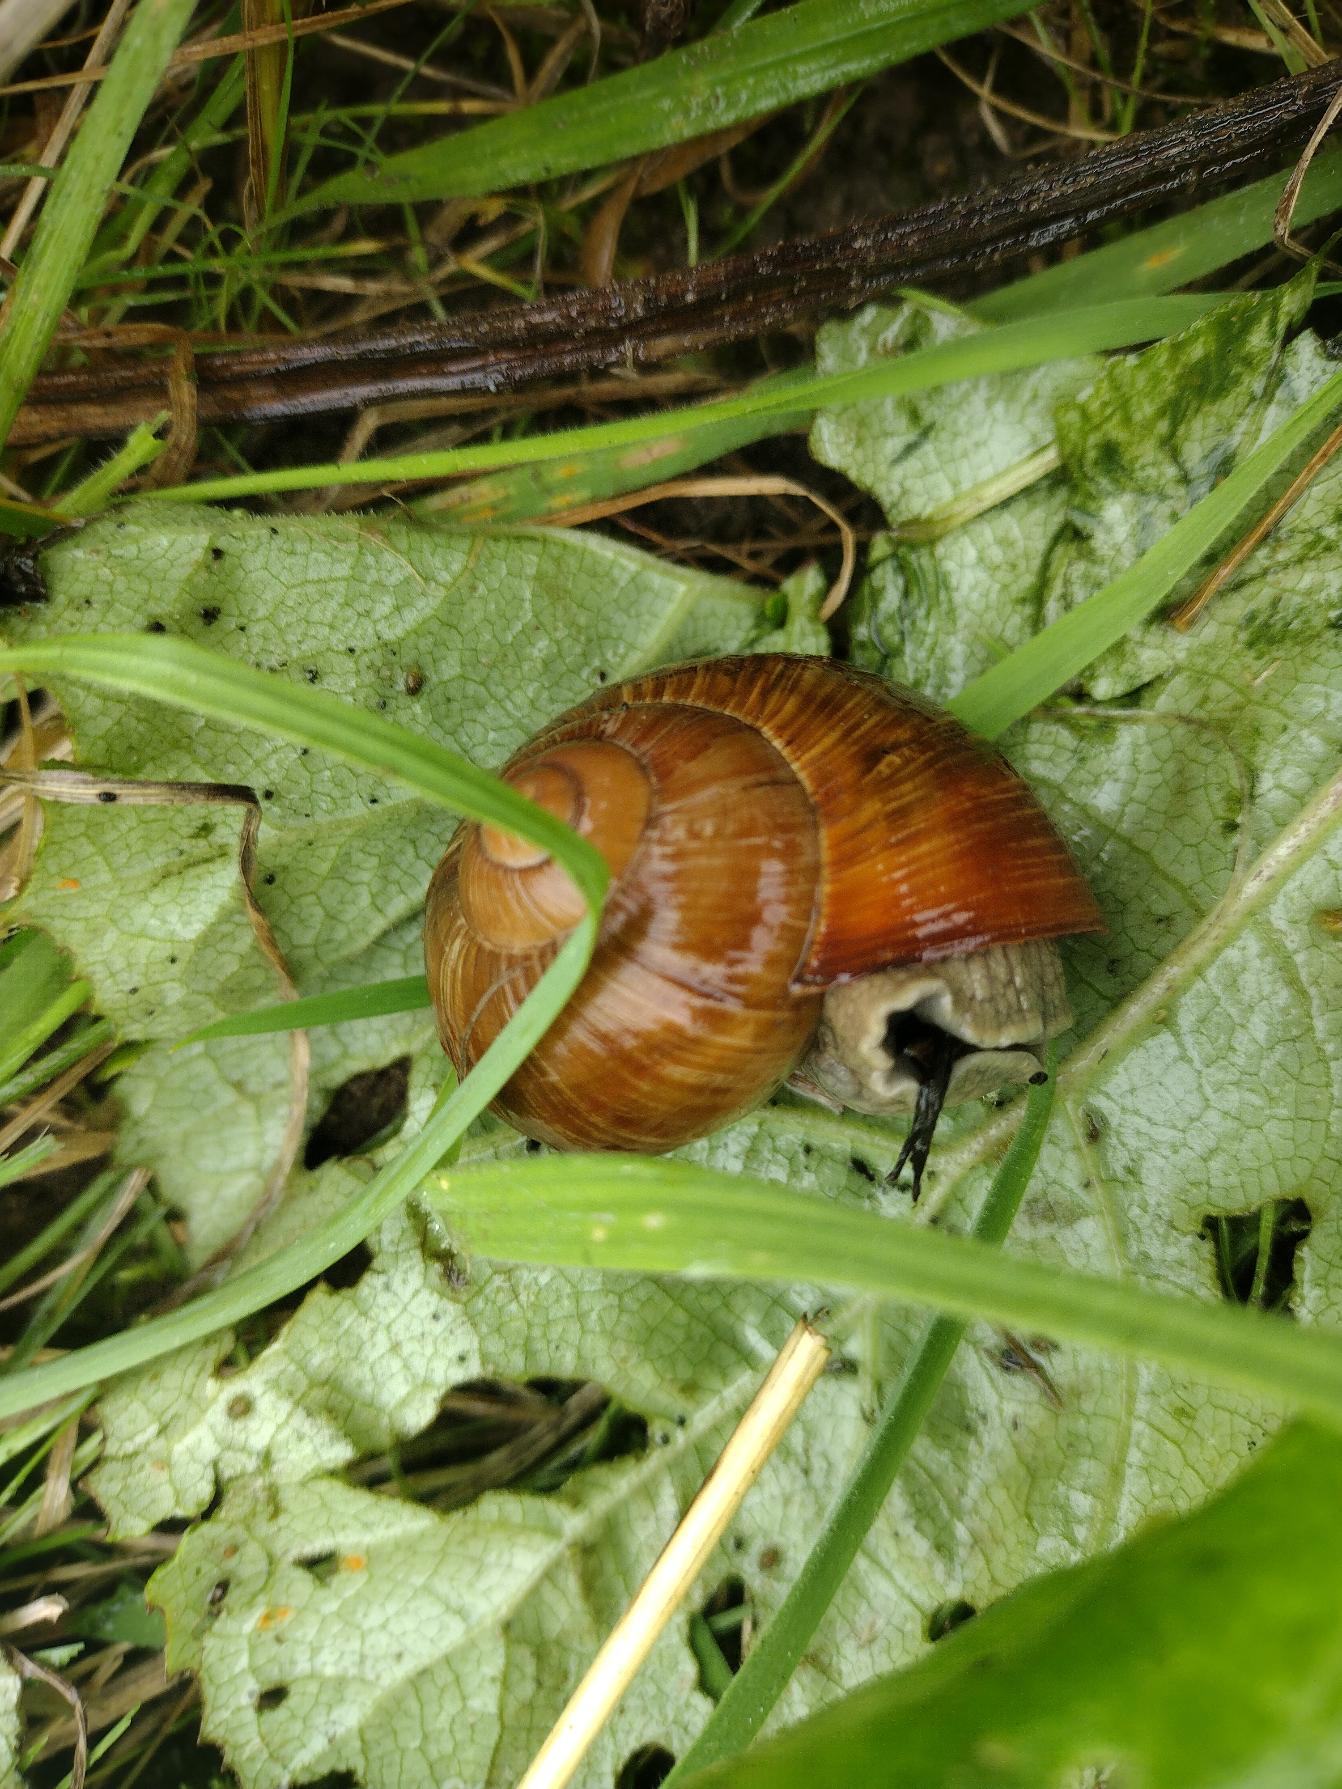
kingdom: Animalia
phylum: Mollusca
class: Gastropoda
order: Stylommatophora
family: Helicidae
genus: Helix
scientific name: Helix pomatia
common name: Vinbjergsnegl
